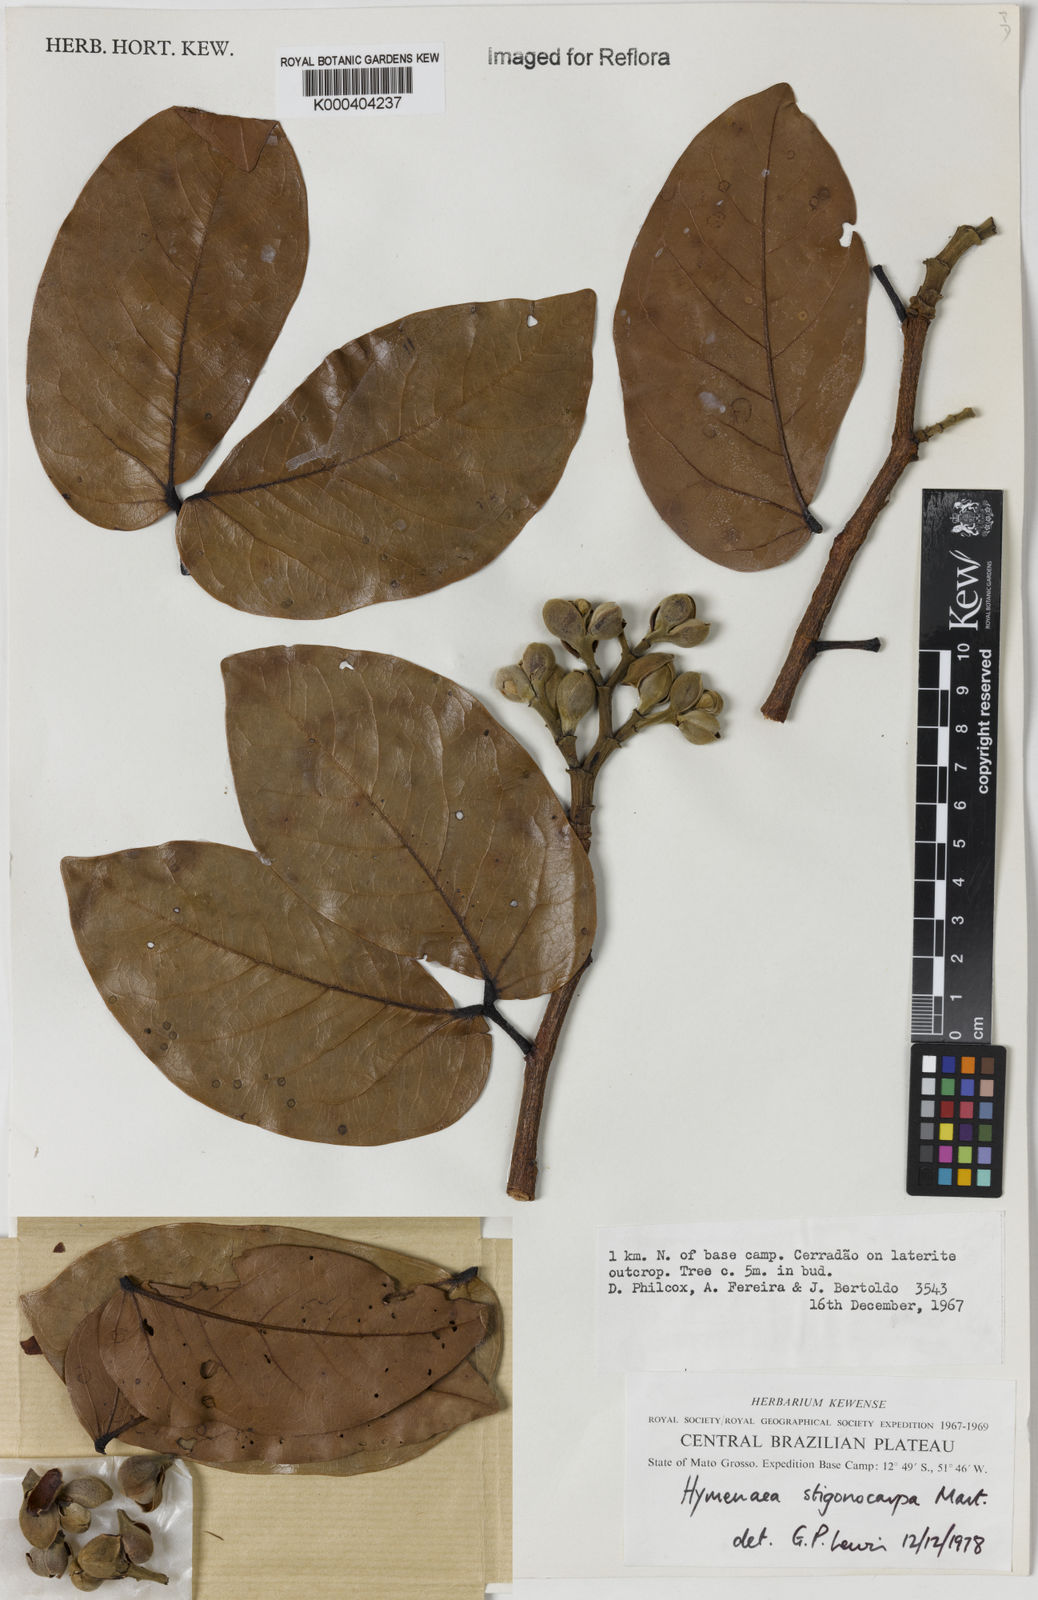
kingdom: Plantae
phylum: Tracheophyta
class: Magnoliopsida
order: Fabales
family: Fabaceae
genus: Hymenaea
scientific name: Hymenaea stigonocarpa
